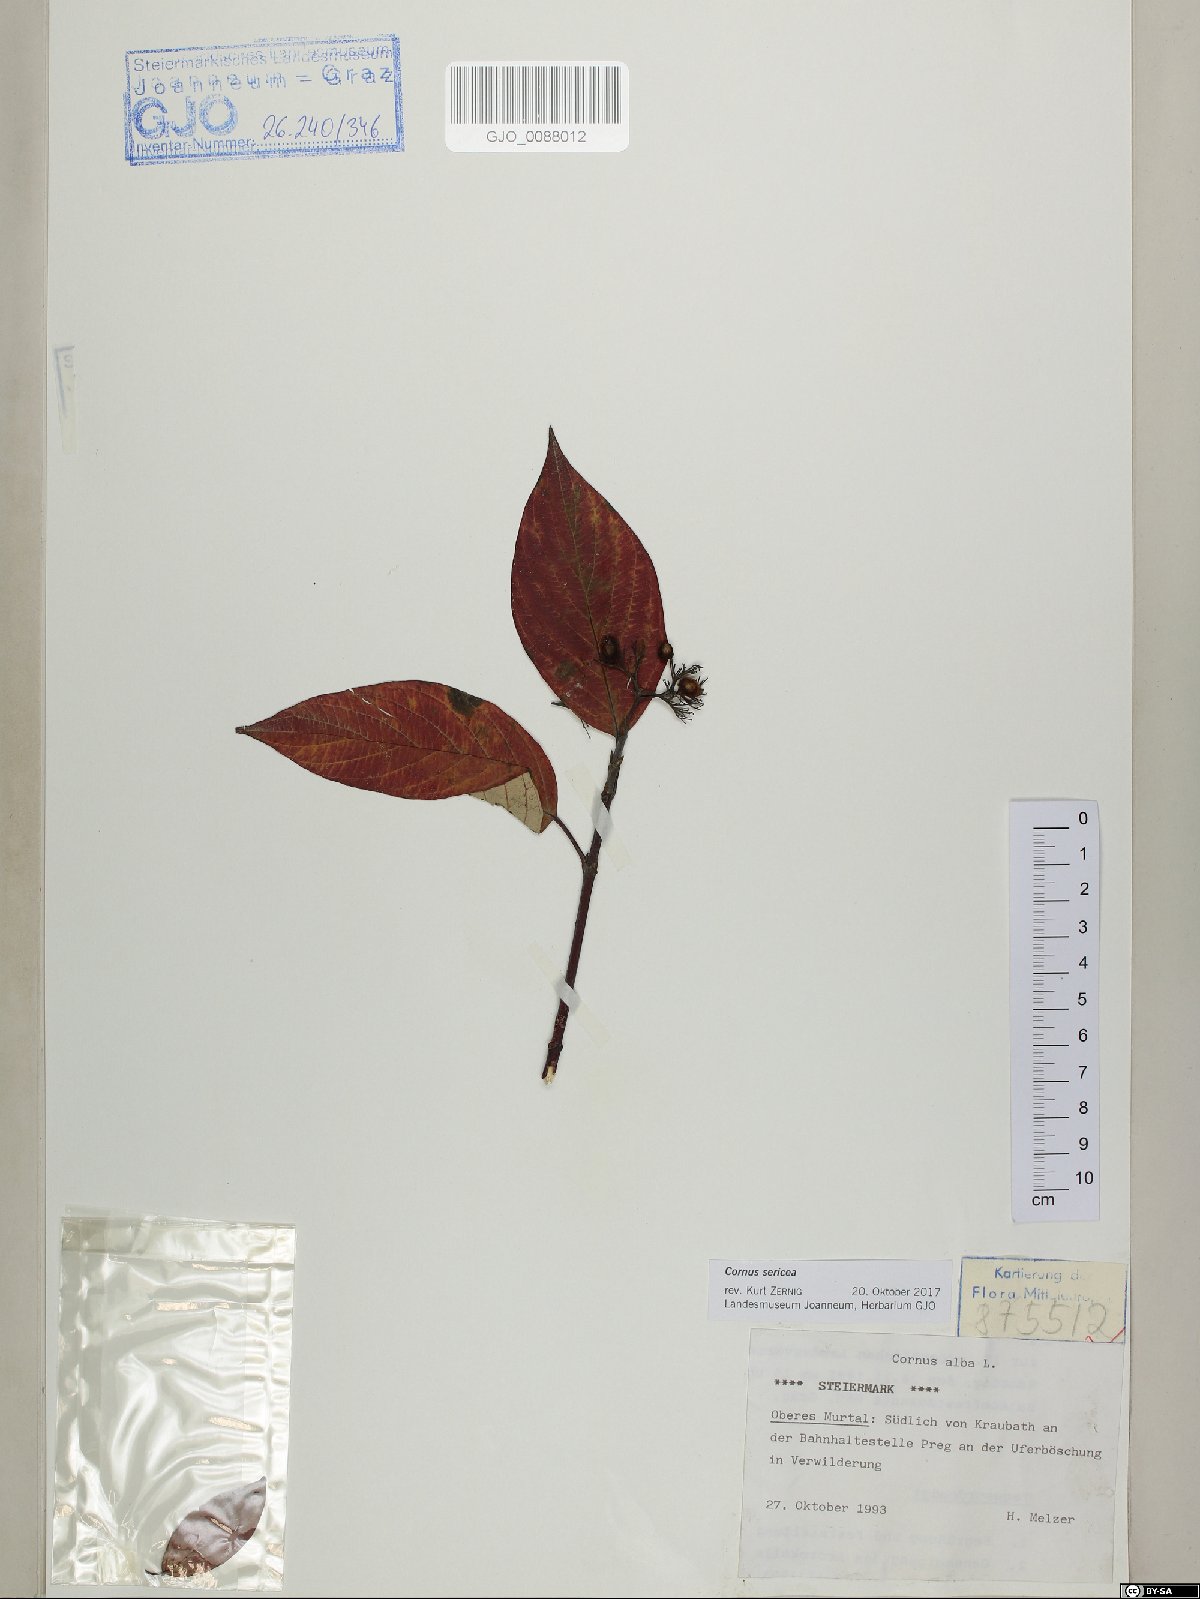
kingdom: Plantae
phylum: Tracheophyta
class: Magnoliopsida
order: Cornales
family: Cornaceae
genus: Cornus
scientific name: Cornus sericea
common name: Red-osier dogwood
